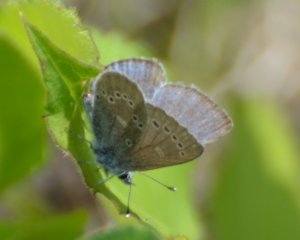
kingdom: Animalia
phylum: Arthropoda
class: Insecta
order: Lepidoptera
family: Lycaenidae
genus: Glaucopsyche
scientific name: Glaucopsyche lygdamus
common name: Silvery Blue
